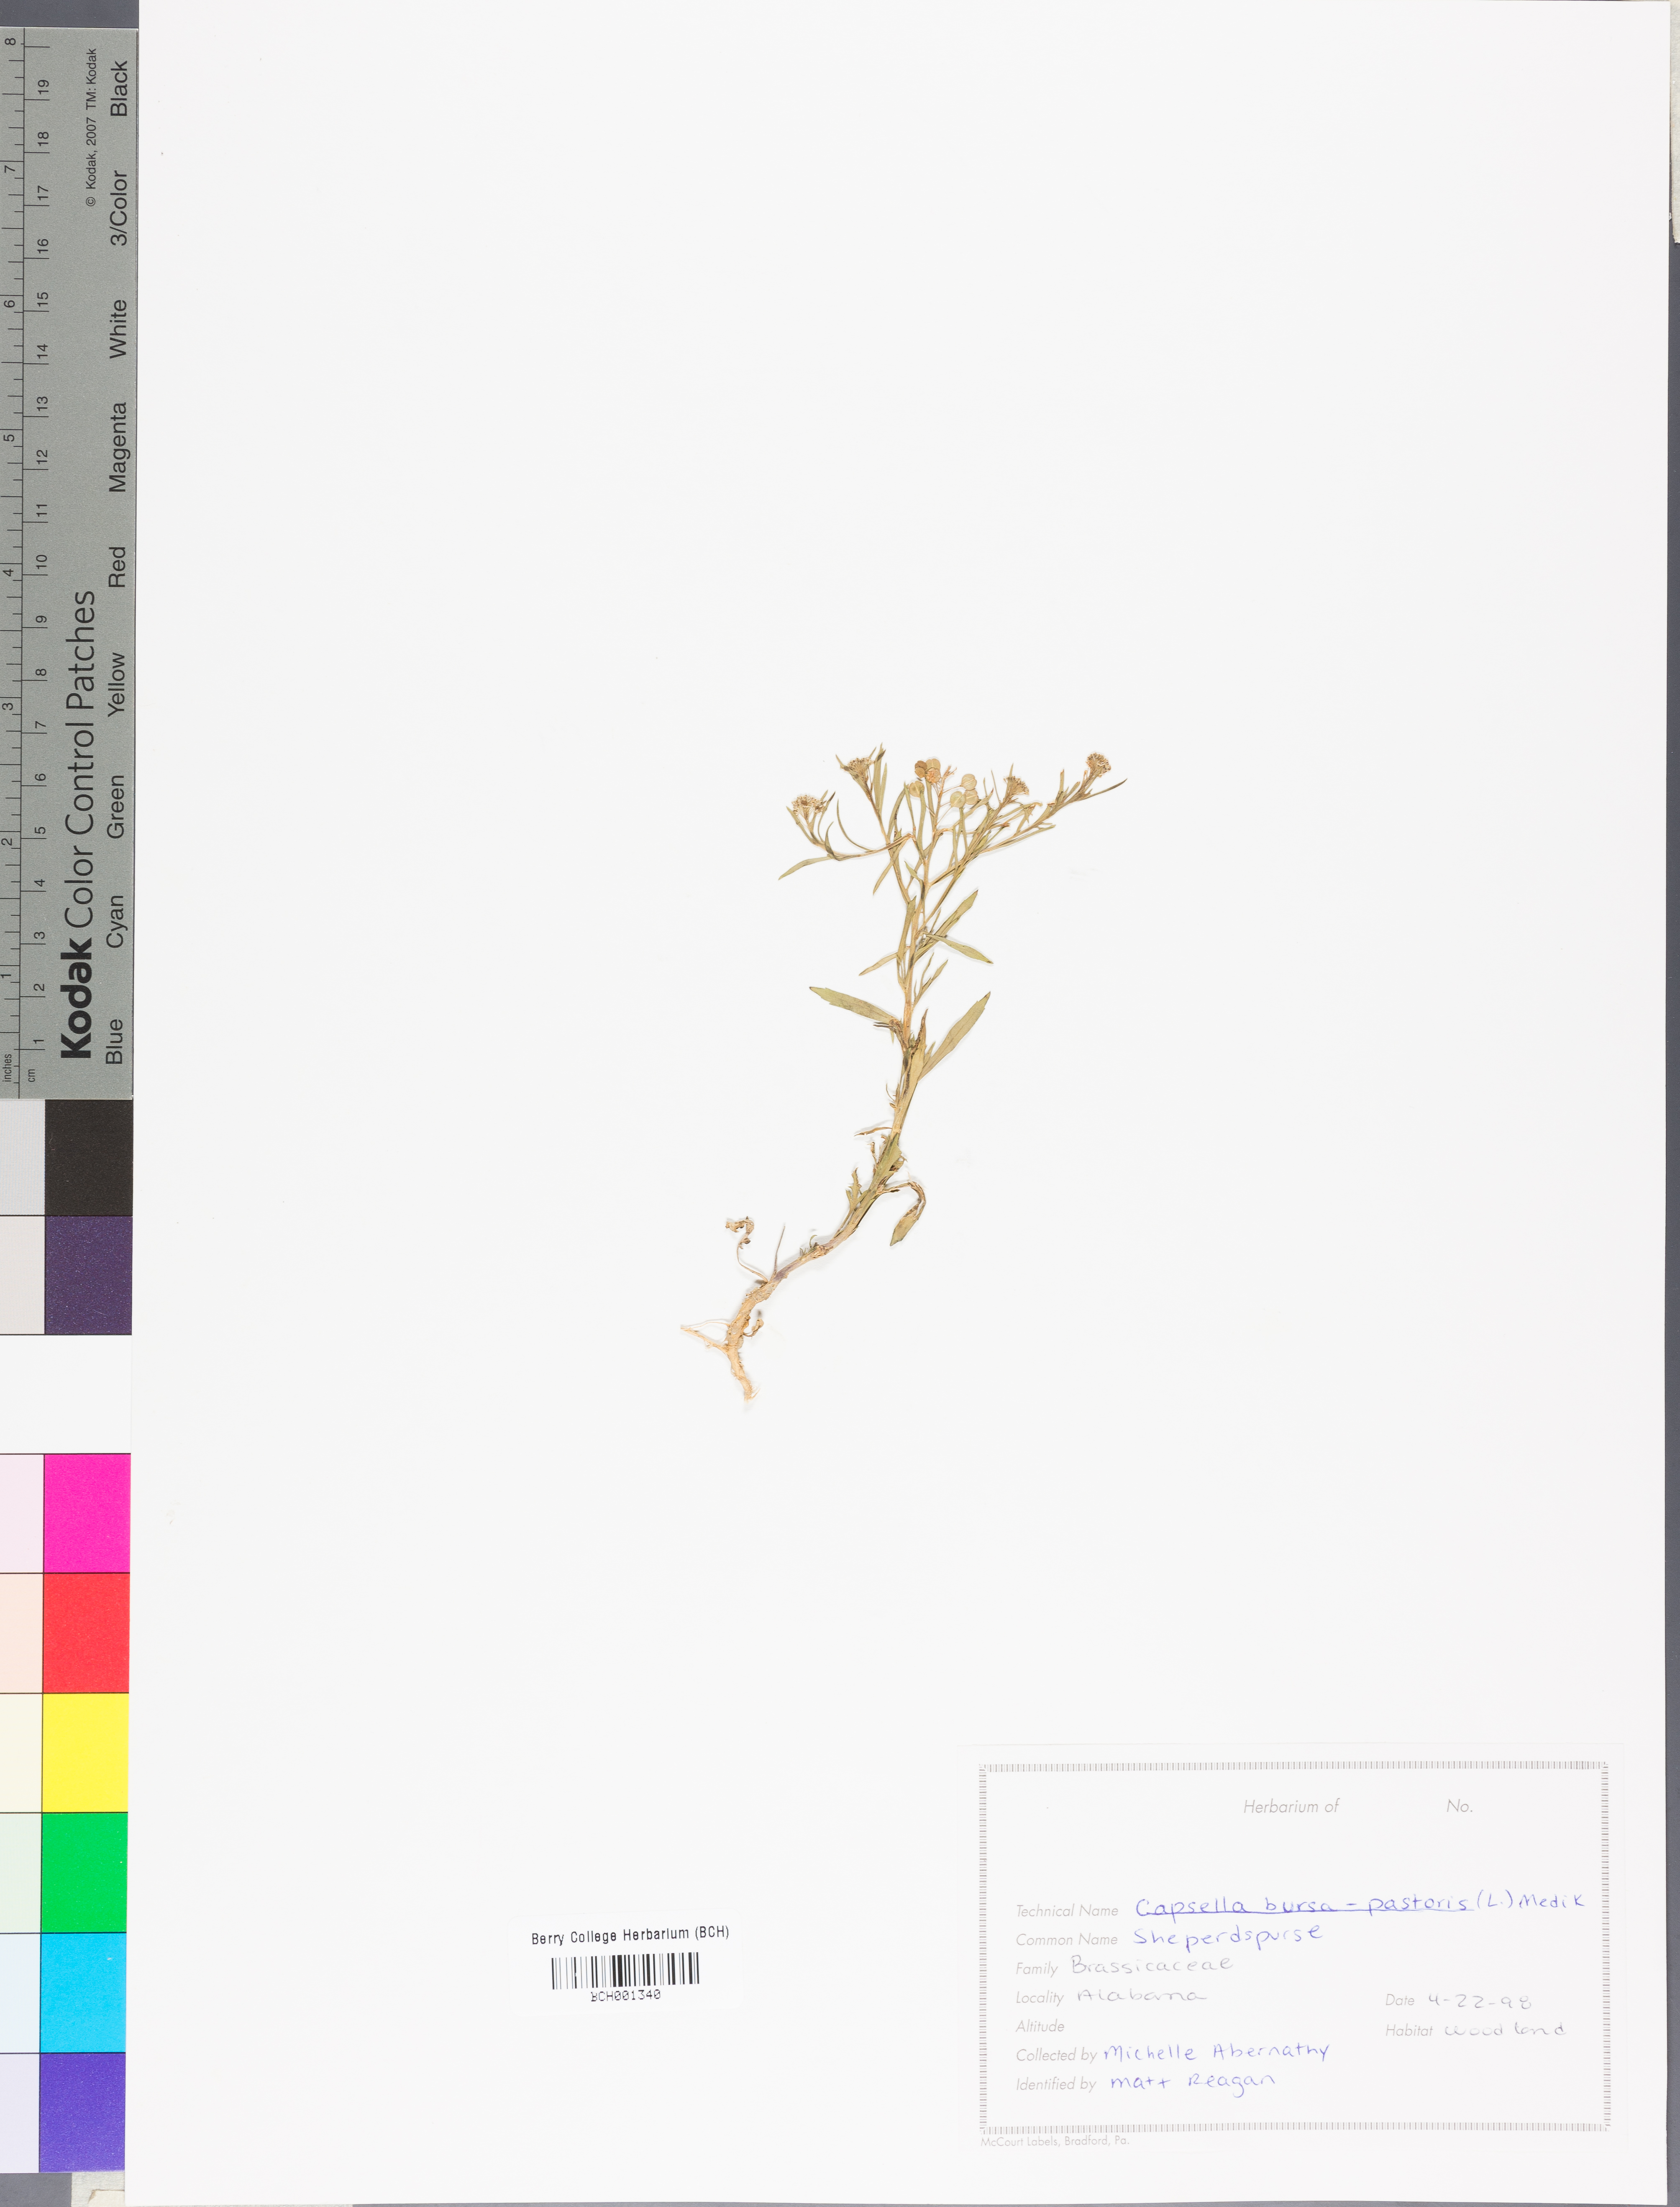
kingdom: Plantae
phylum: Tracheophyta
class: Magnoliopsida
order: Brassicales
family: Brassicaceae
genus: Capsella
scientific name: Capsella bursa-pastoris
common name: Shepherd's purse
